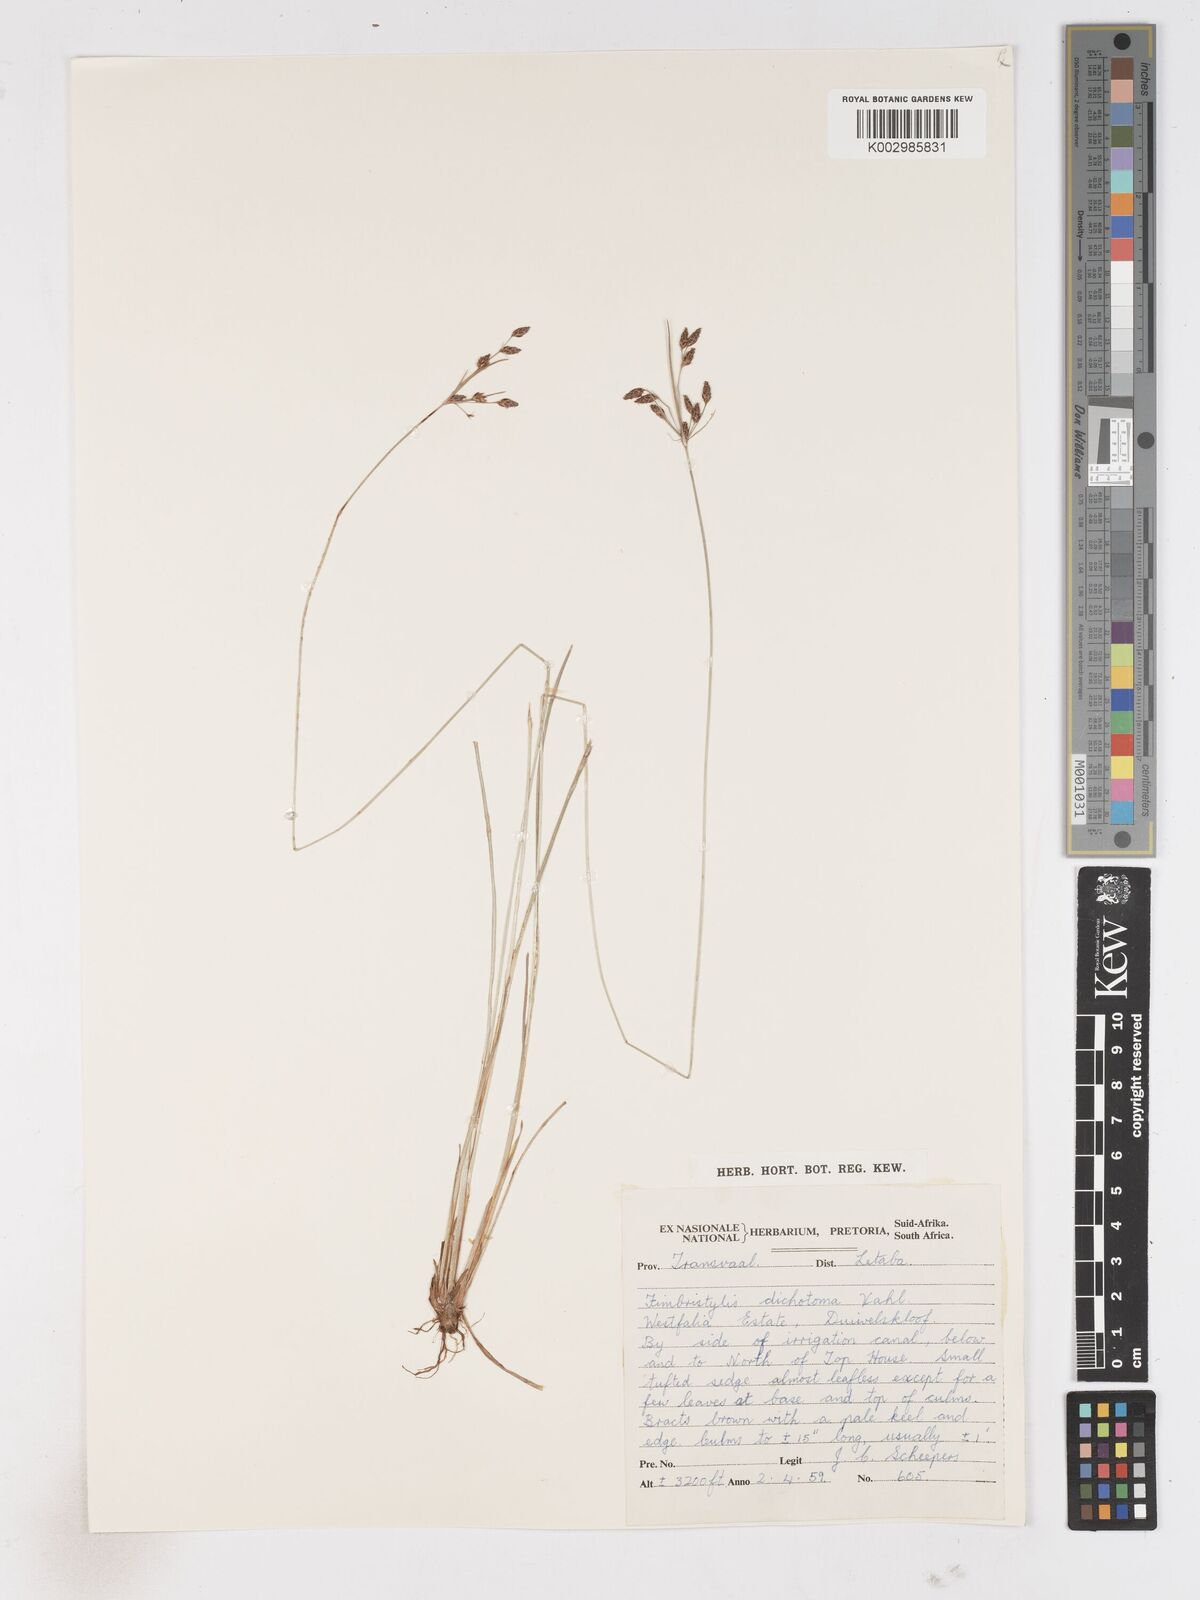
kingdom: Plantae
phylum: Tracheophyta
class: Liliopsida
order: Poales
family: Cyperaceae
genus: Fimbristylis
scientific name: Fimbristylis dichotoma
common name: Forked fimbry
